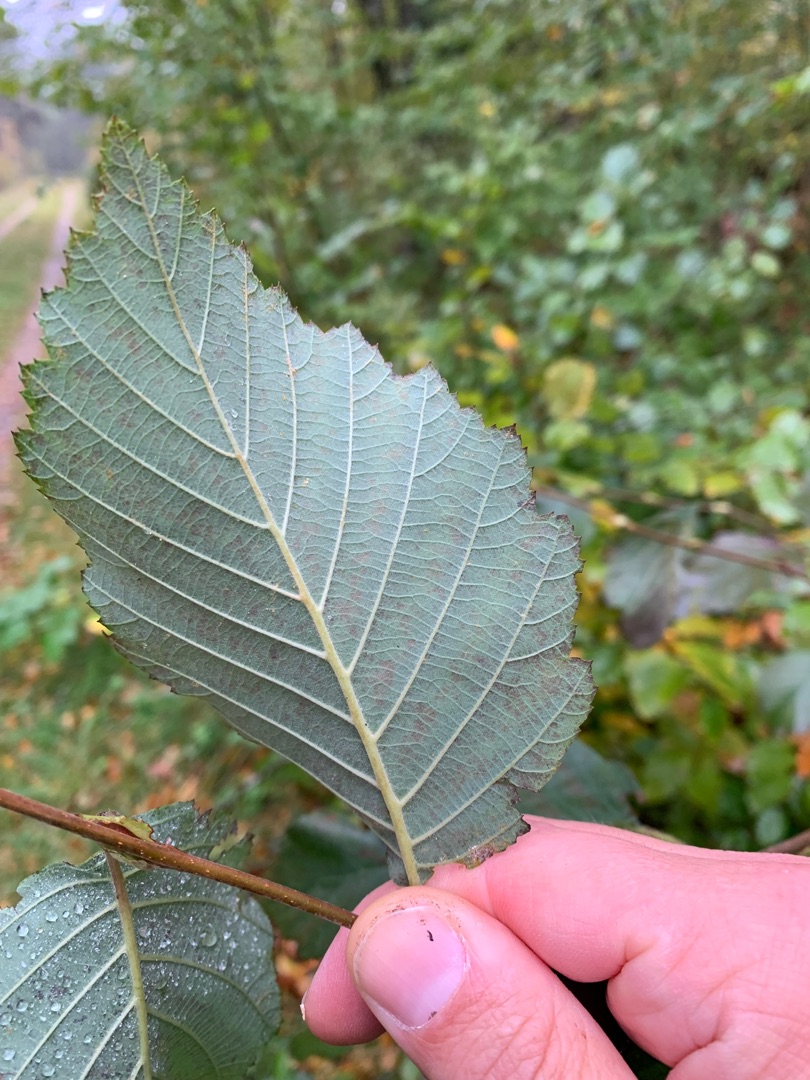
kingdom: Plantae
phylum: Tracheophyta
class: Magnoliopsida
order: Fagales
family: Betulaceae
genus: Alnus
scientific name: Alnus incana
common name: Grå-el/hvid-el
